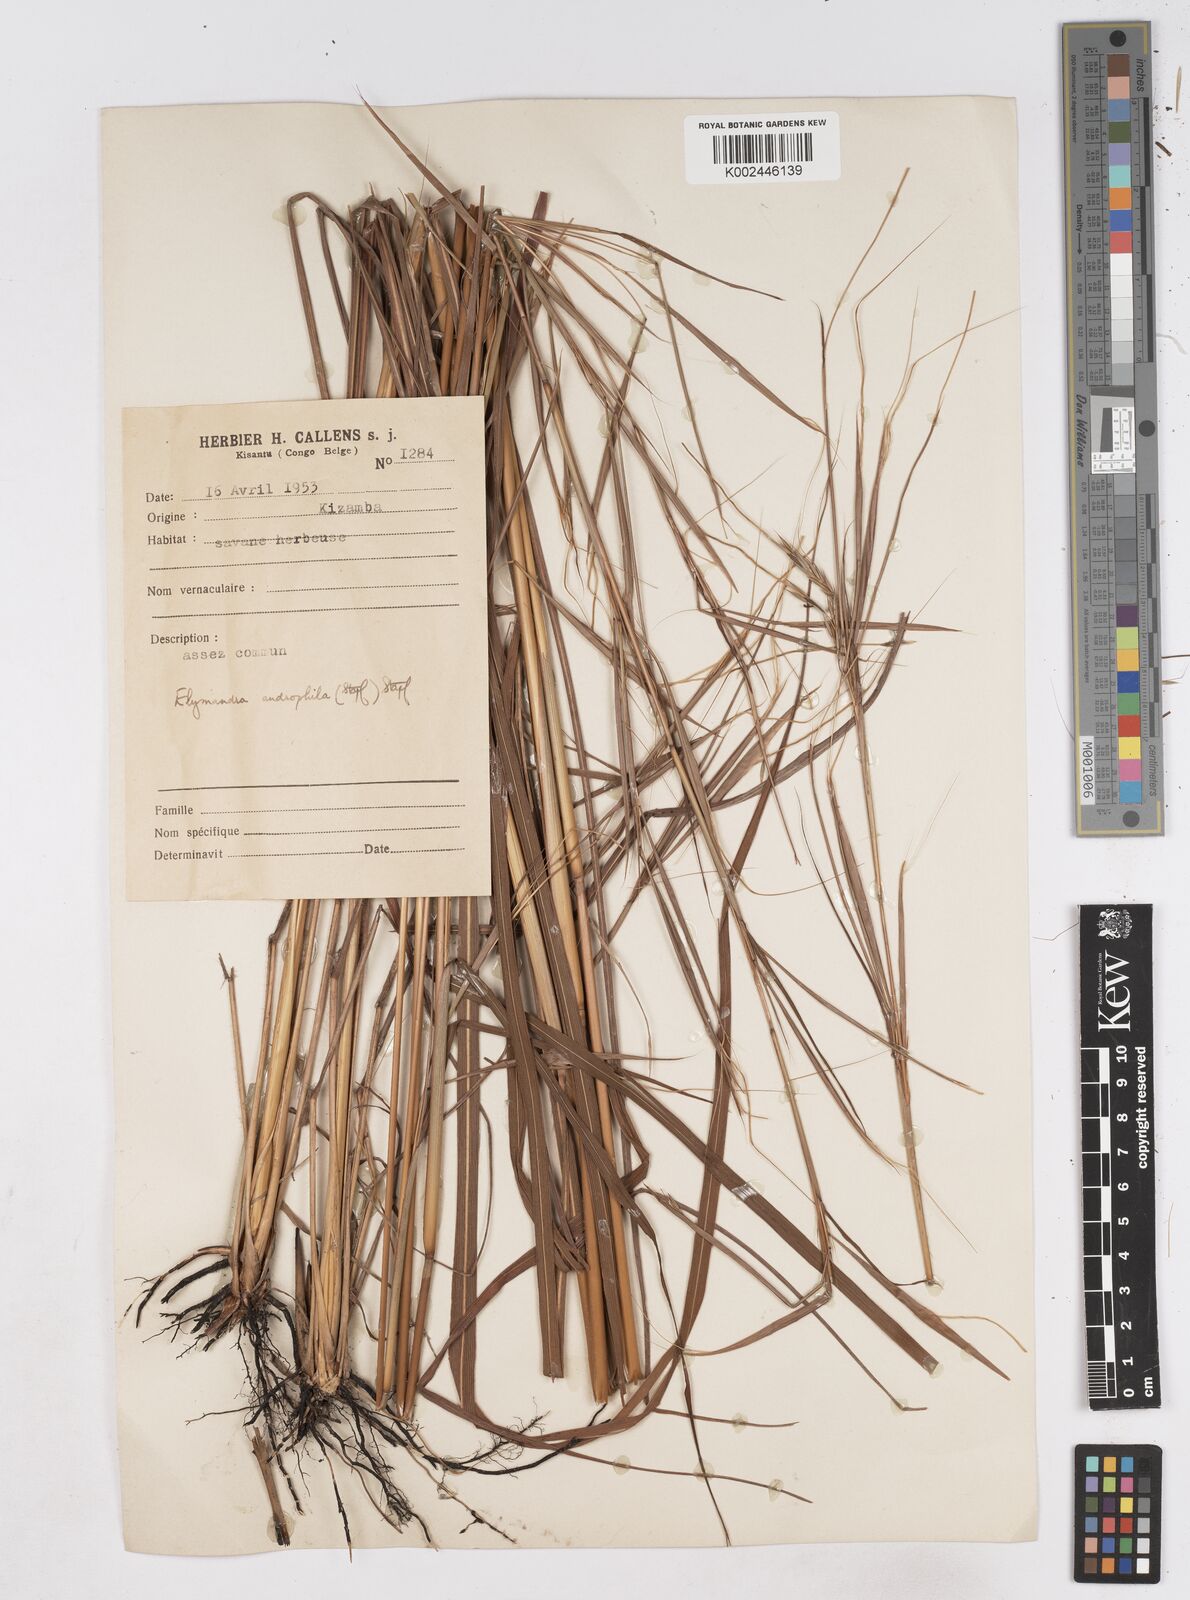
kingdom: Plantae
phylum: Tracheophyta
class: Liliopsida
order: Poales
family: Poaceae
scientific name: Poaceae
